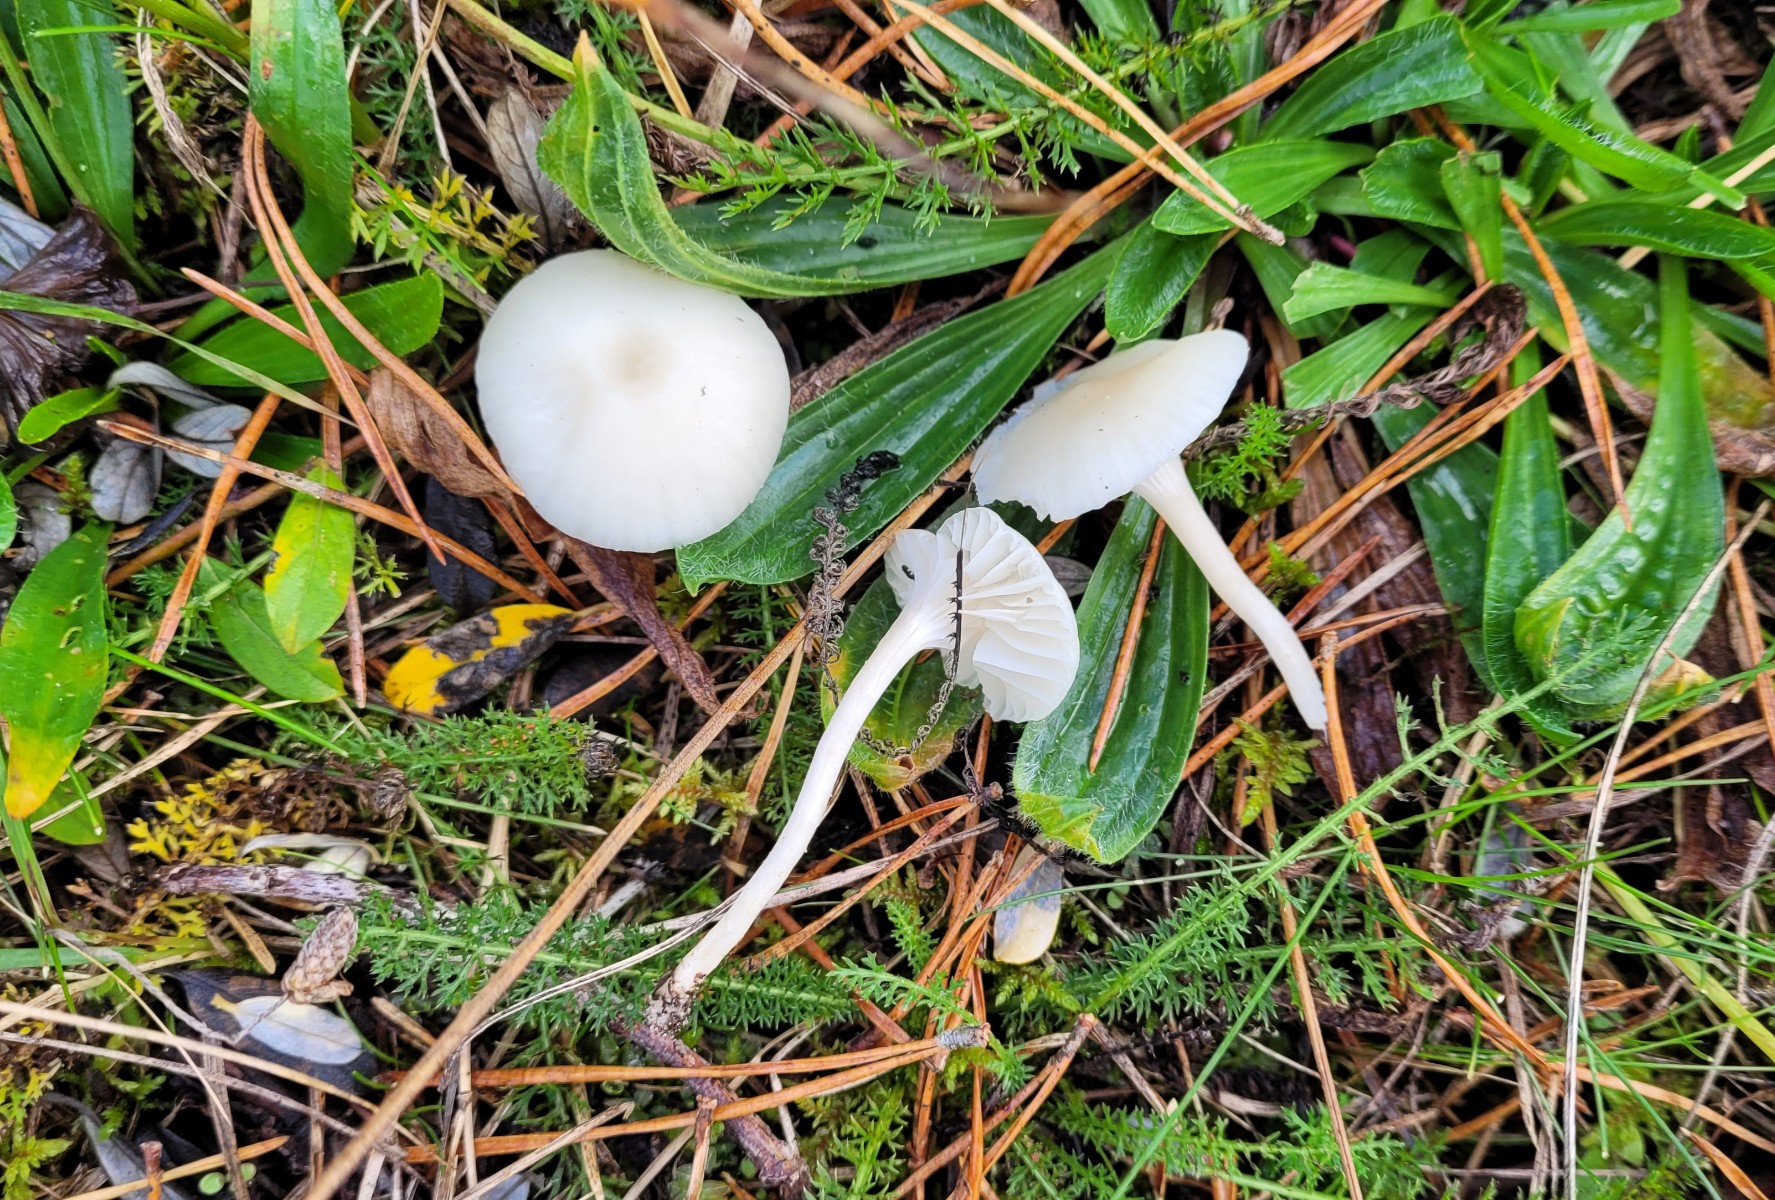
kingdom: Fungi
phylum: Basidiomycota
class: Agaricomycetes
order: Agaricales
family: Hygrophoraceae
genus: Cuphophyllus
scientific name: Cuphophyllus virgineus
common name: snehvid vokshat
